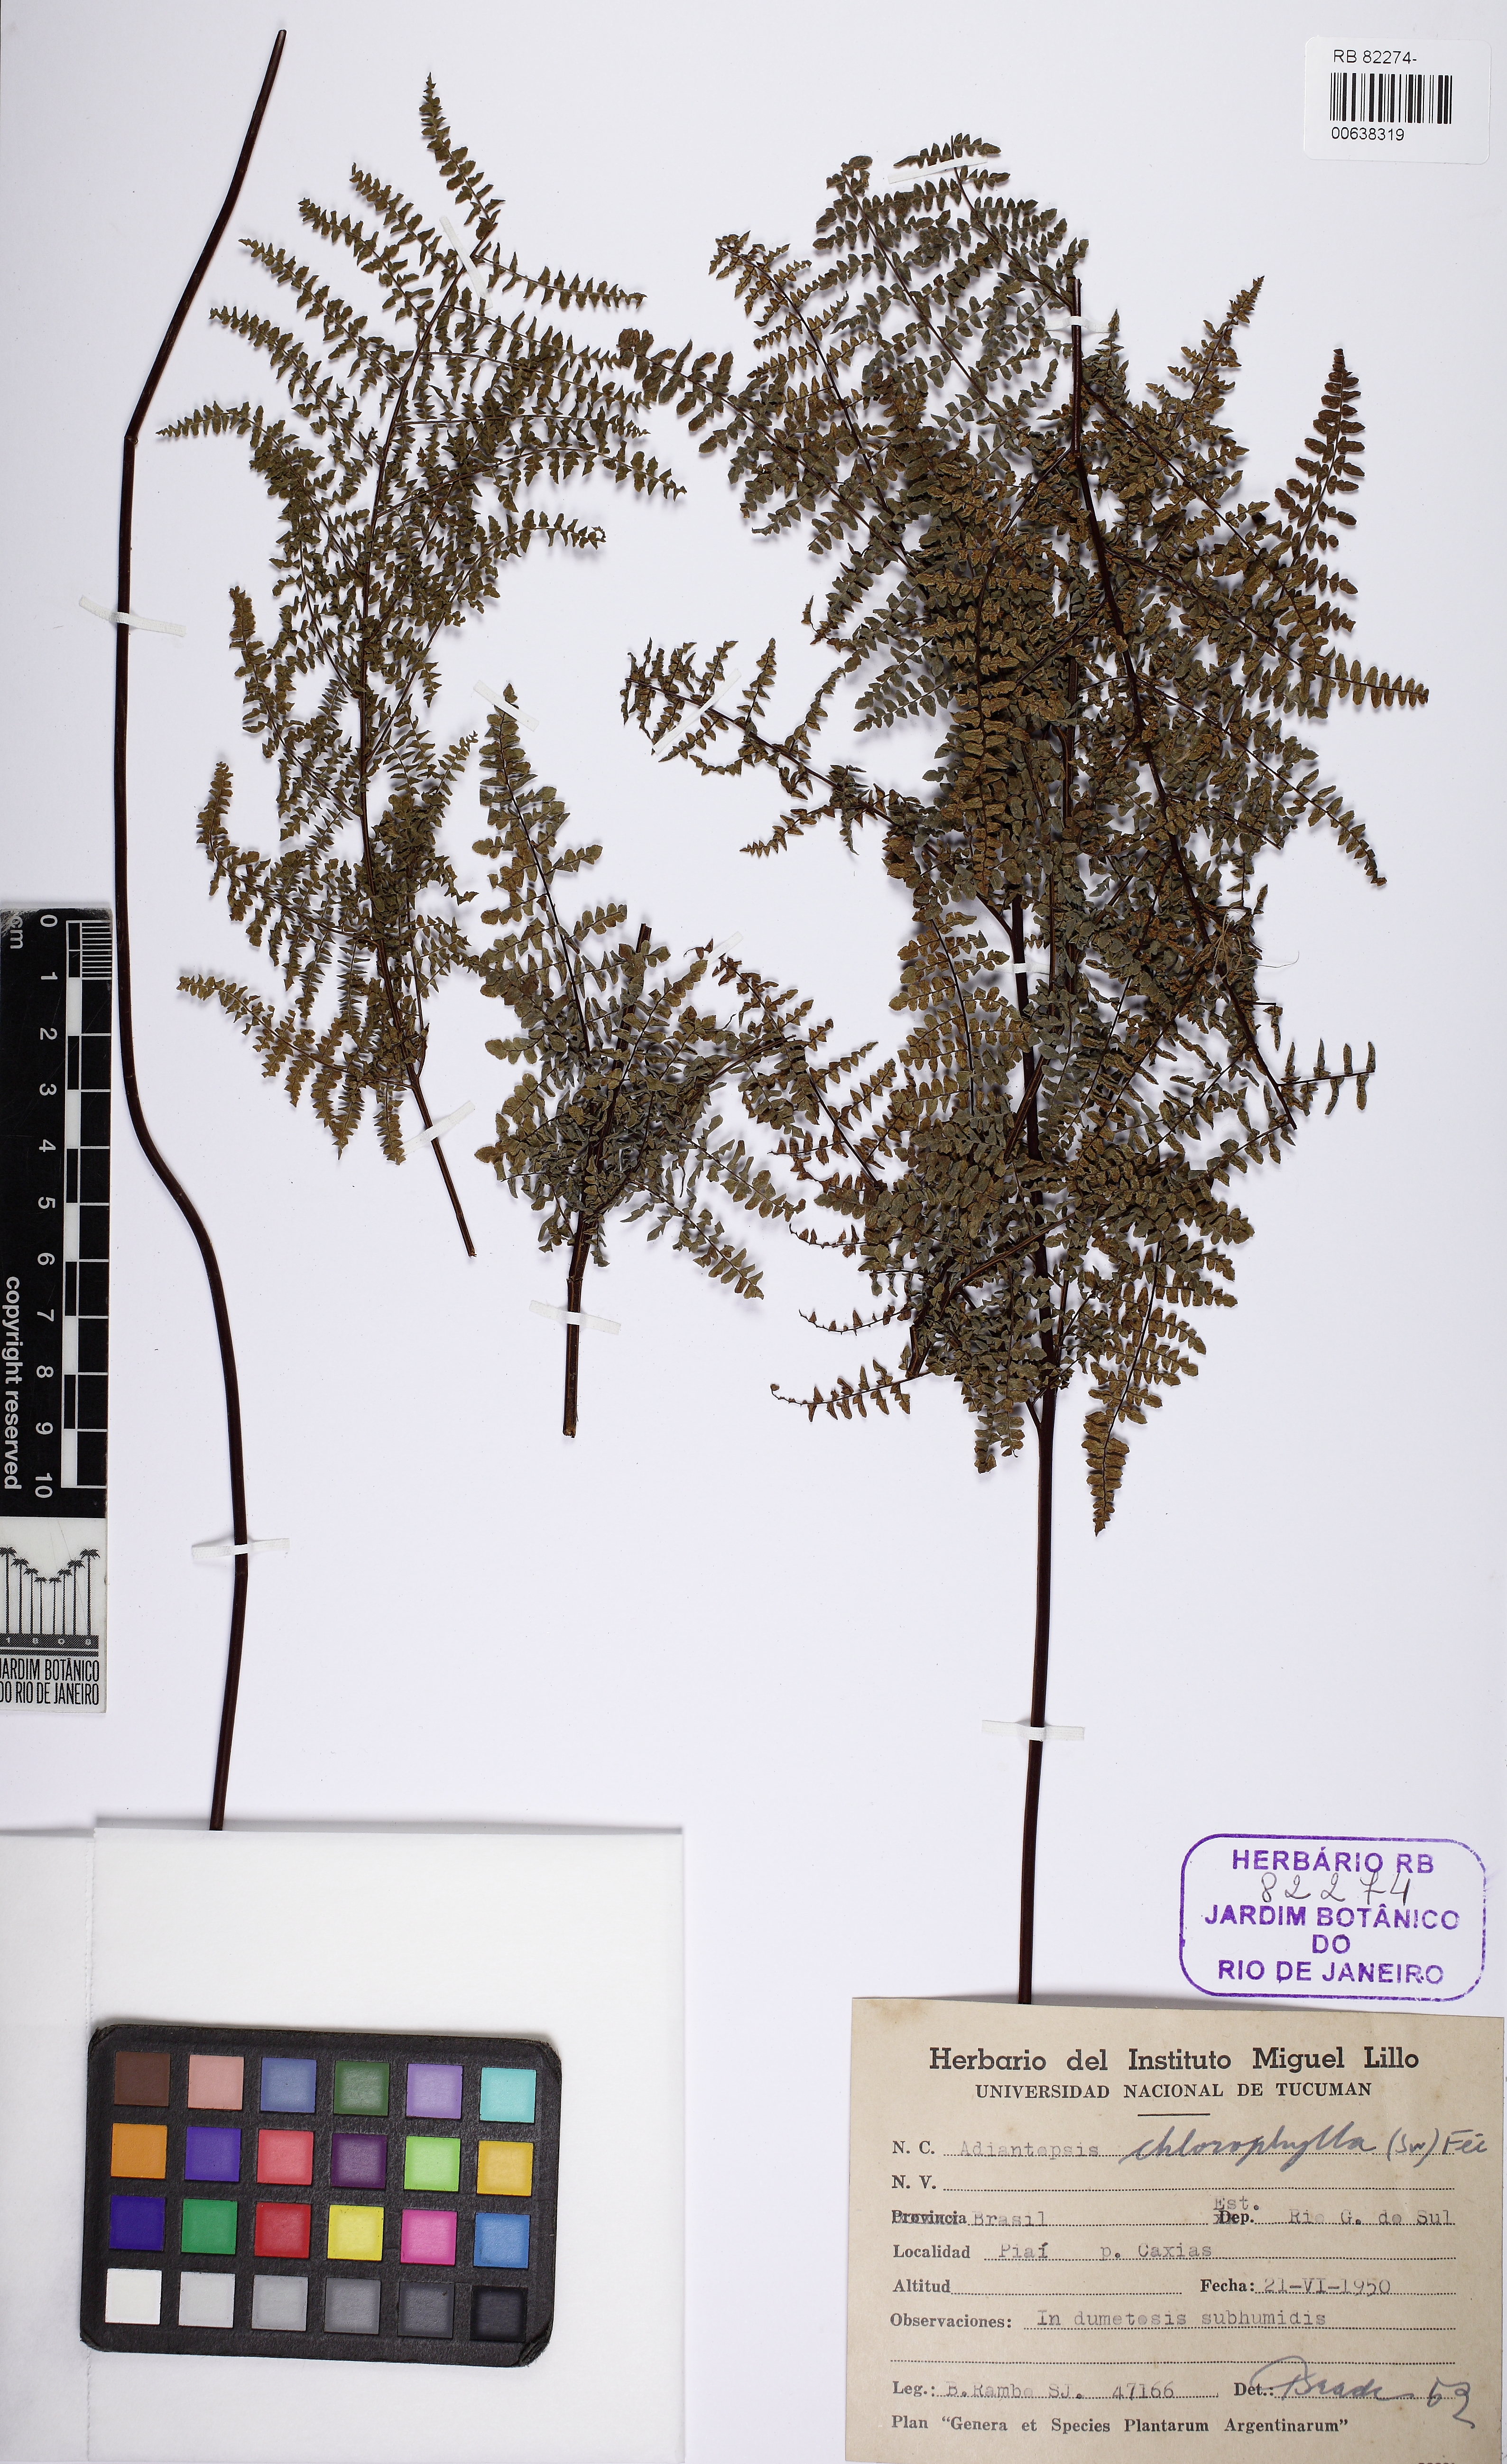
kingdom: Plantae
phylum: Tracheophyta
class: Polypodiopsida
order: Polypodiales
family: Pteridaceae
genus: Adiantopsis
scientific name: Adiantopsis chlorophylla
